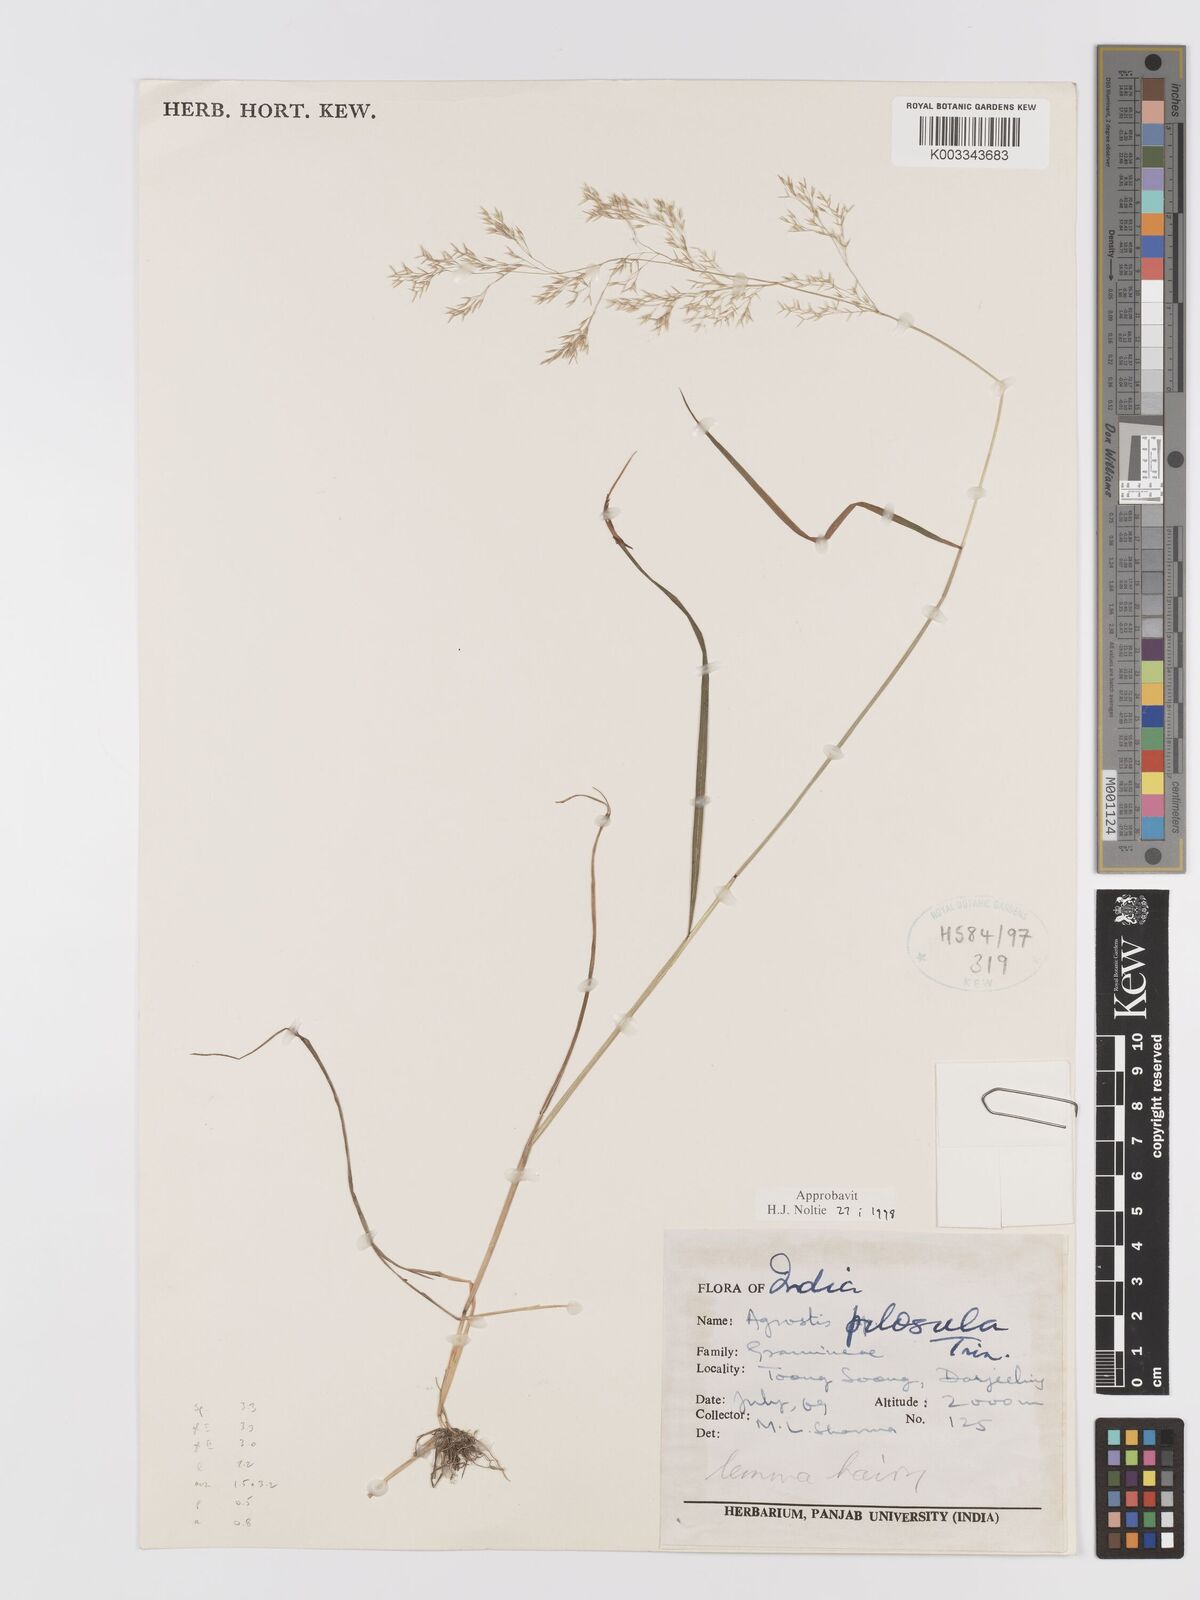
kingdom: Plantae
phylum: Tracheophyta
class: Liliopsida
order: Poales
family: Poaceae
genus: Agrostis
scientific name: Agrostis pilosula
